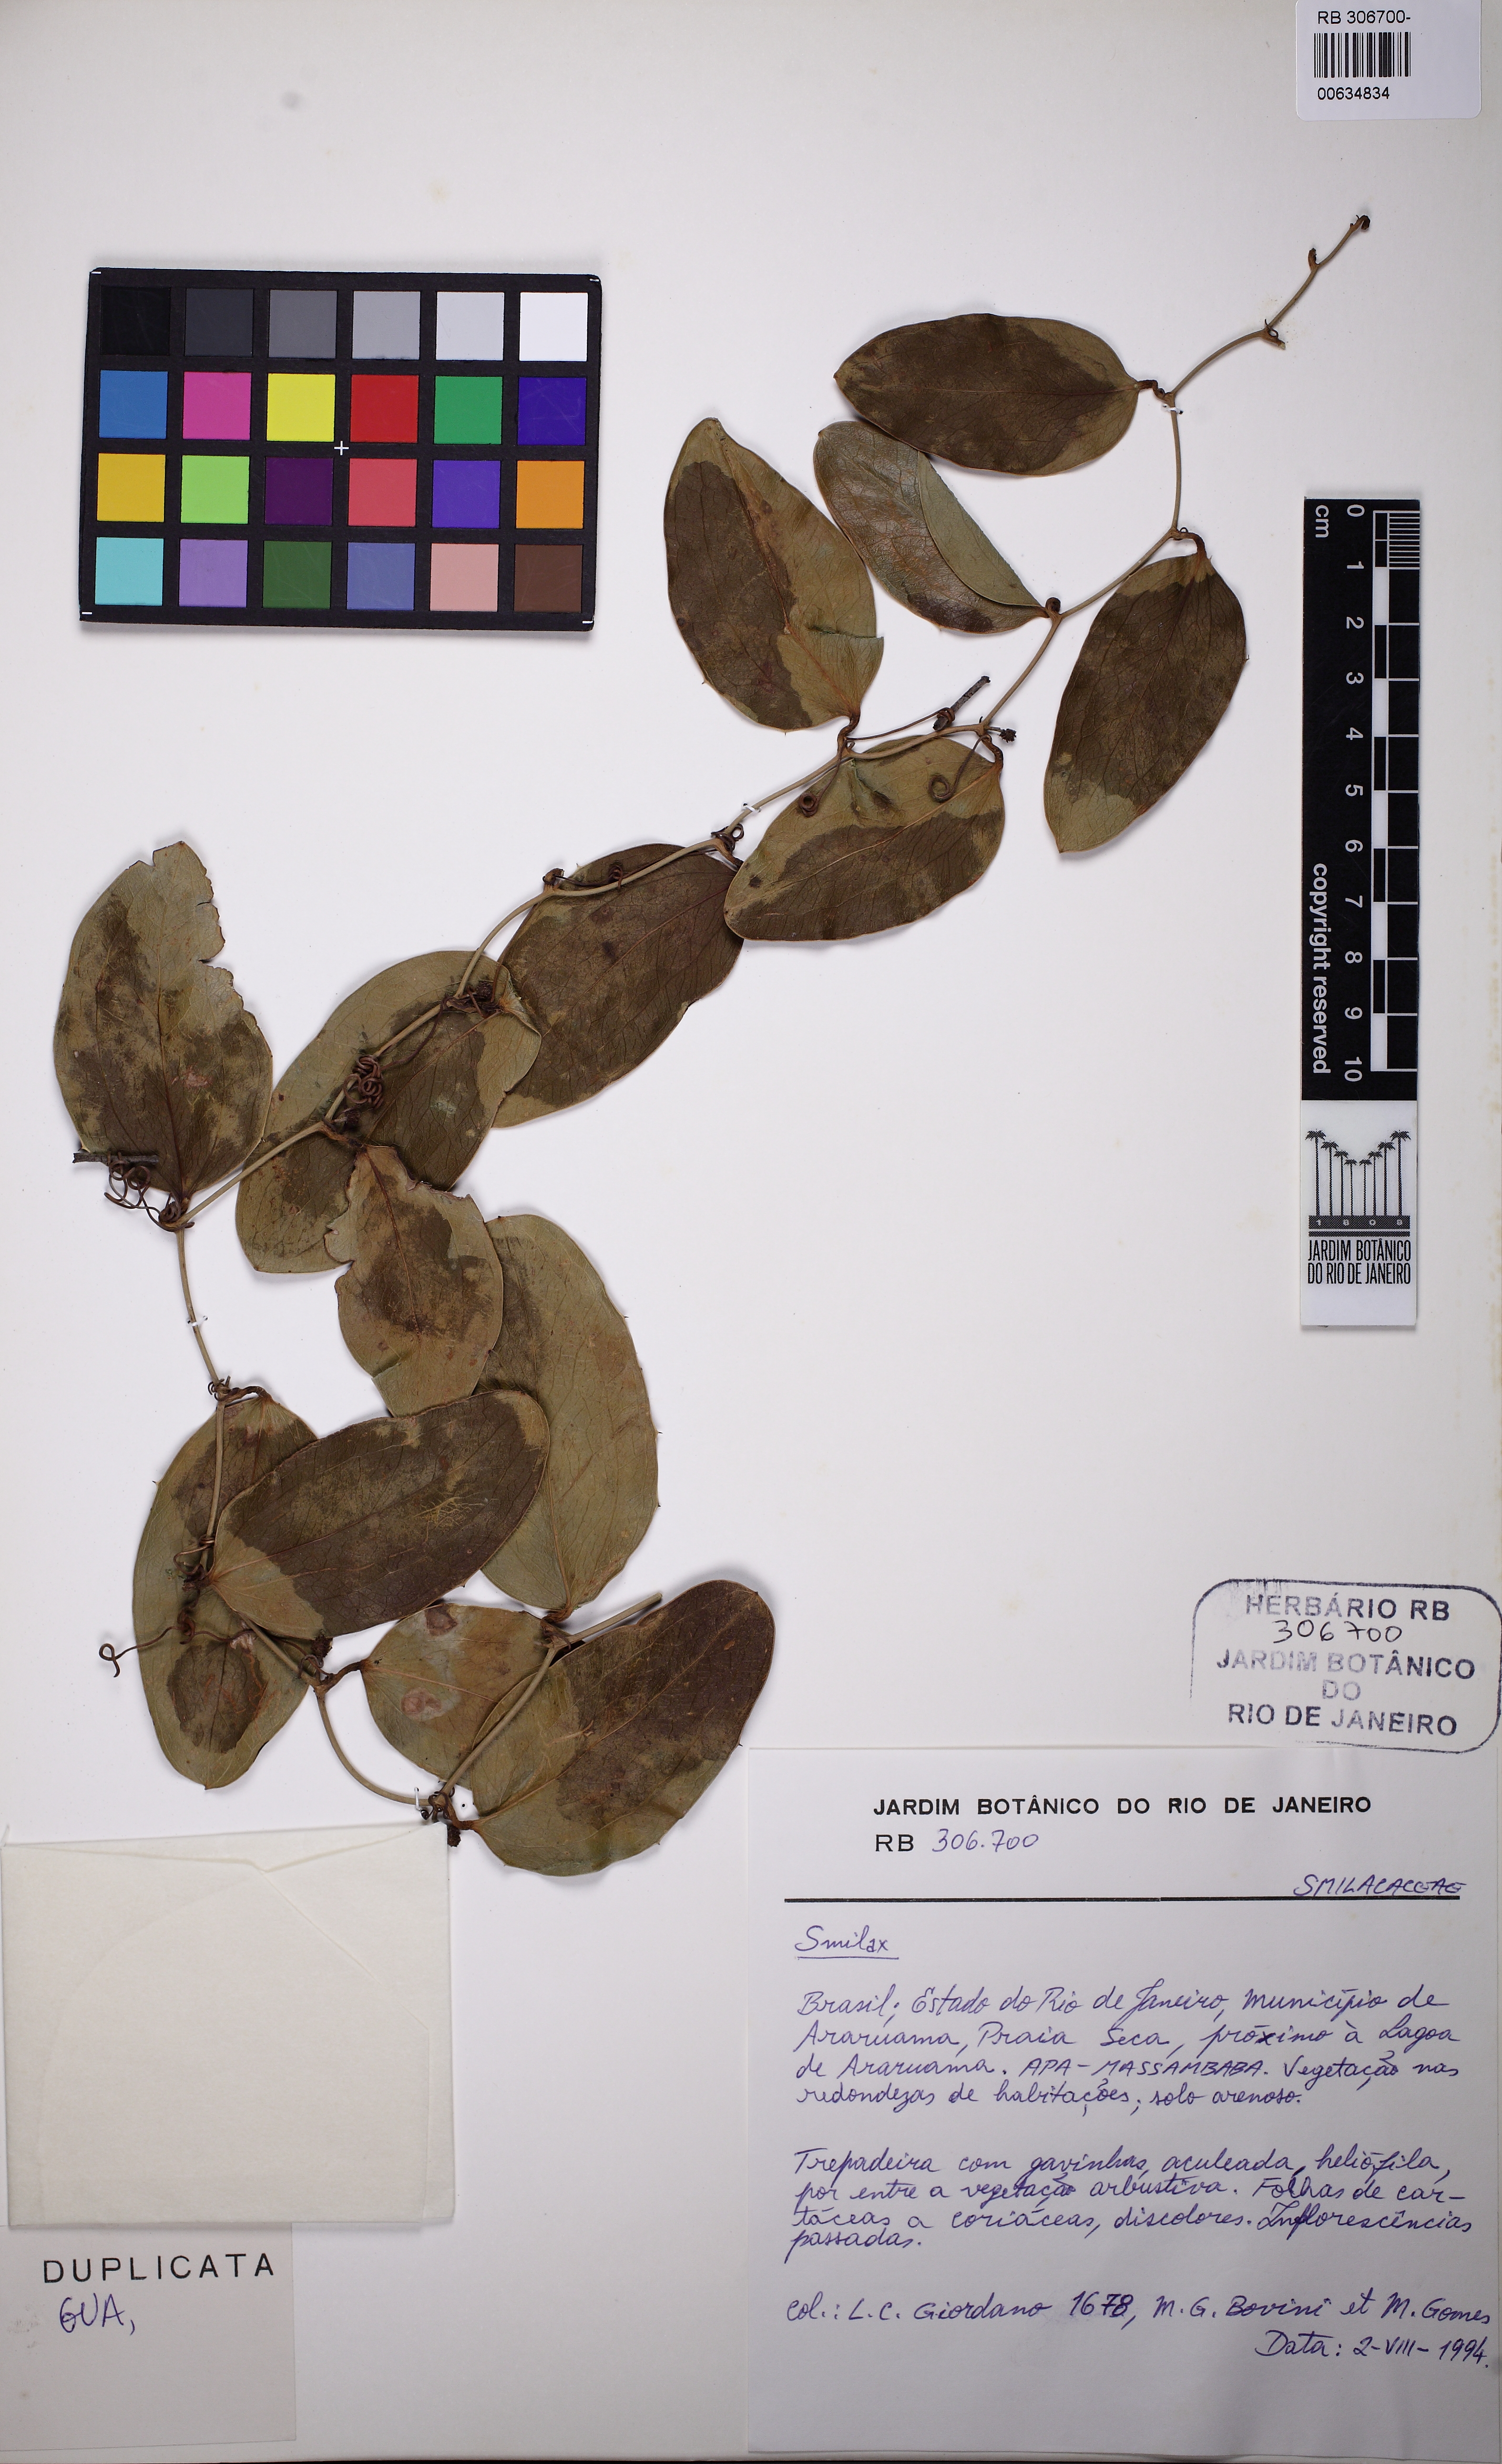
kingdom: Plantae
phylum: Tracheophyta
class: Liliopsida
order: Liliales
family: Smilacaceae
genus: Smilax
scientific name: Smilax
